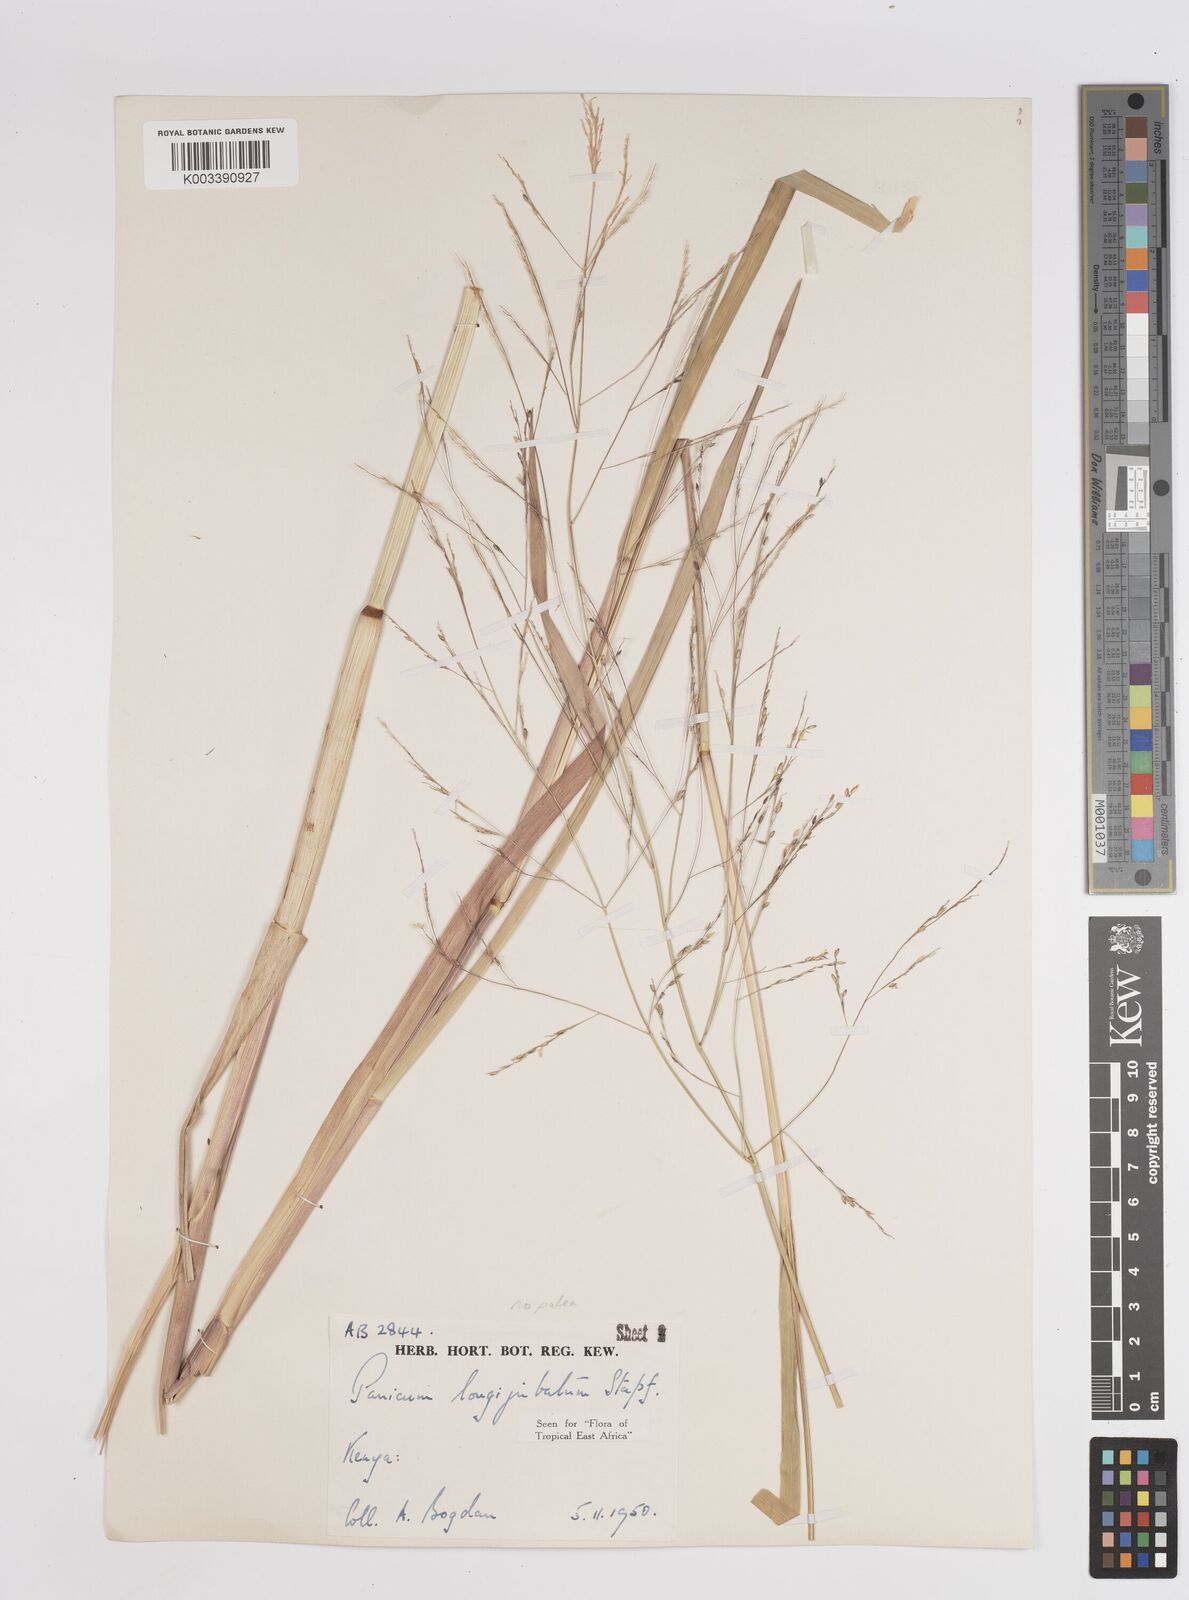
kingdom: Plantae
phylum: Tracheophyta
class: Liliopsida
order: Poales
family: Poaceae
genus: Panicum
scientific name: Panicum subalbidum
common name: Elbow buffalo grass
